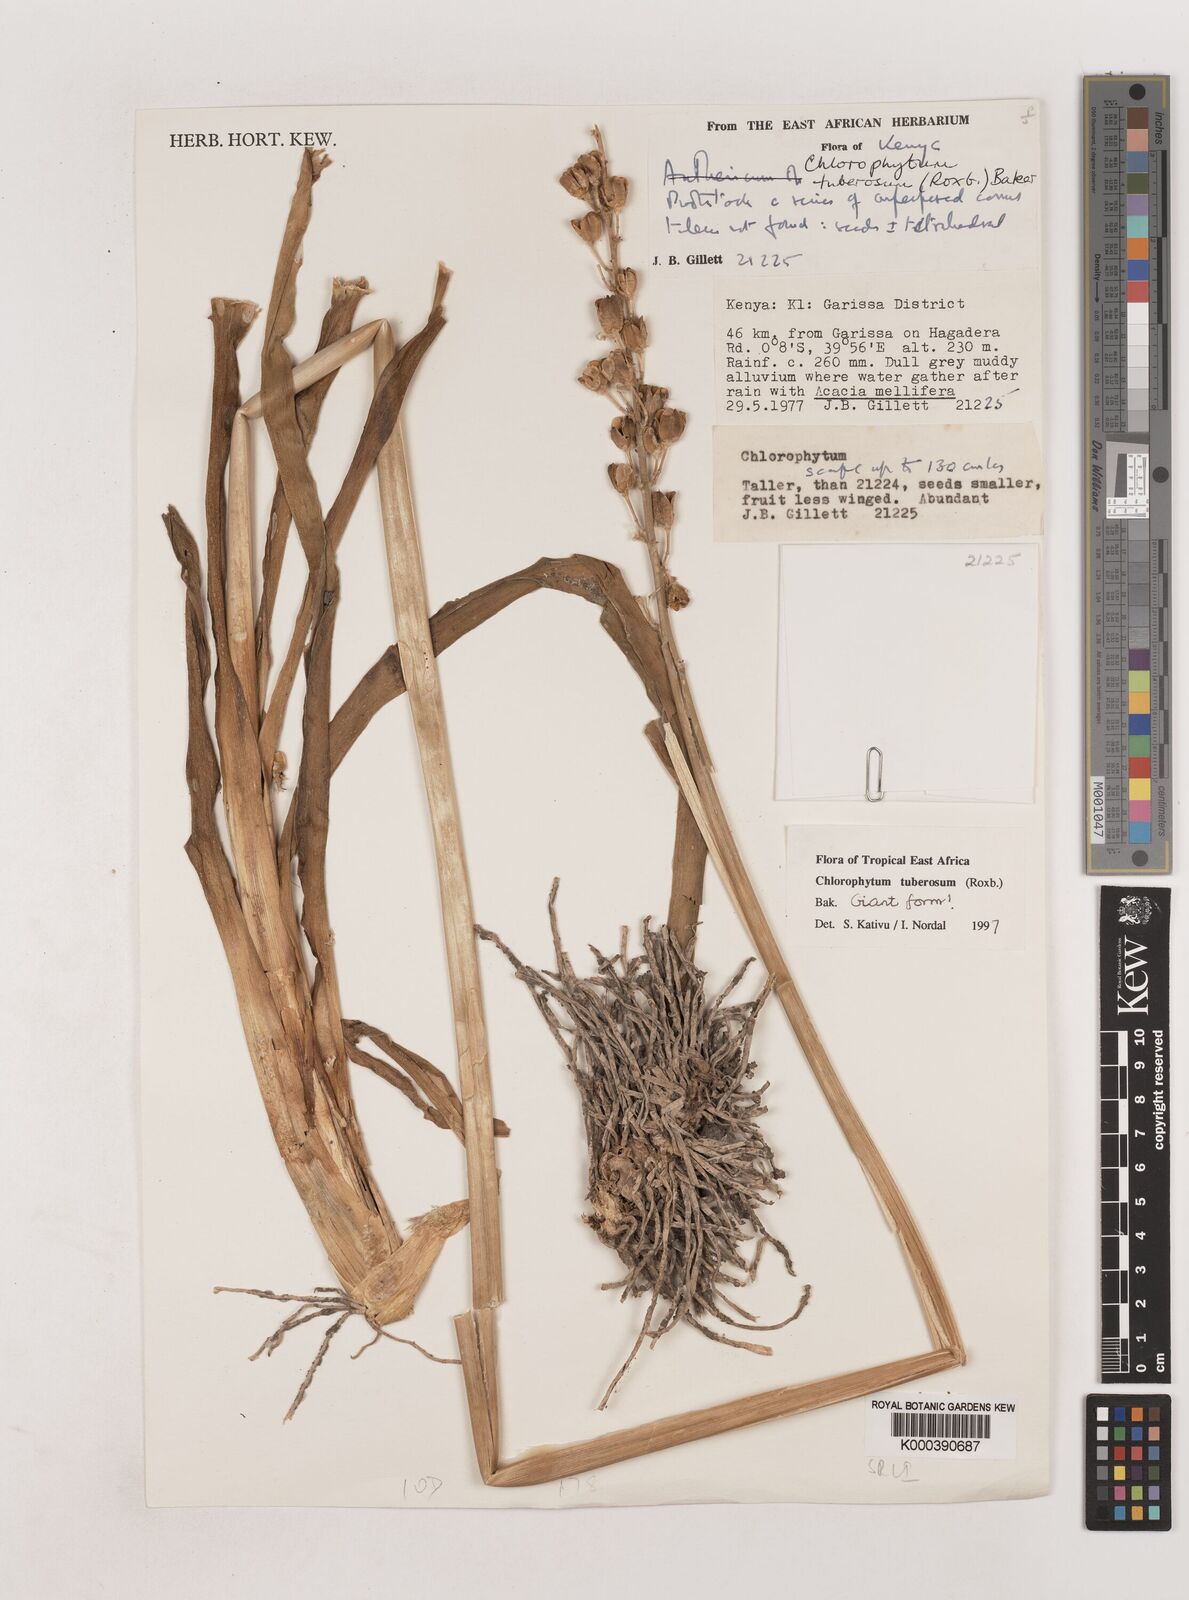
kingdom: Plantae
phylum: Tracheophyta
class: Liliopsida
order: Asparagales
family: Asparagaceae
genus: Chlorophytum
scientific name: Chlorophytum tuberosum
